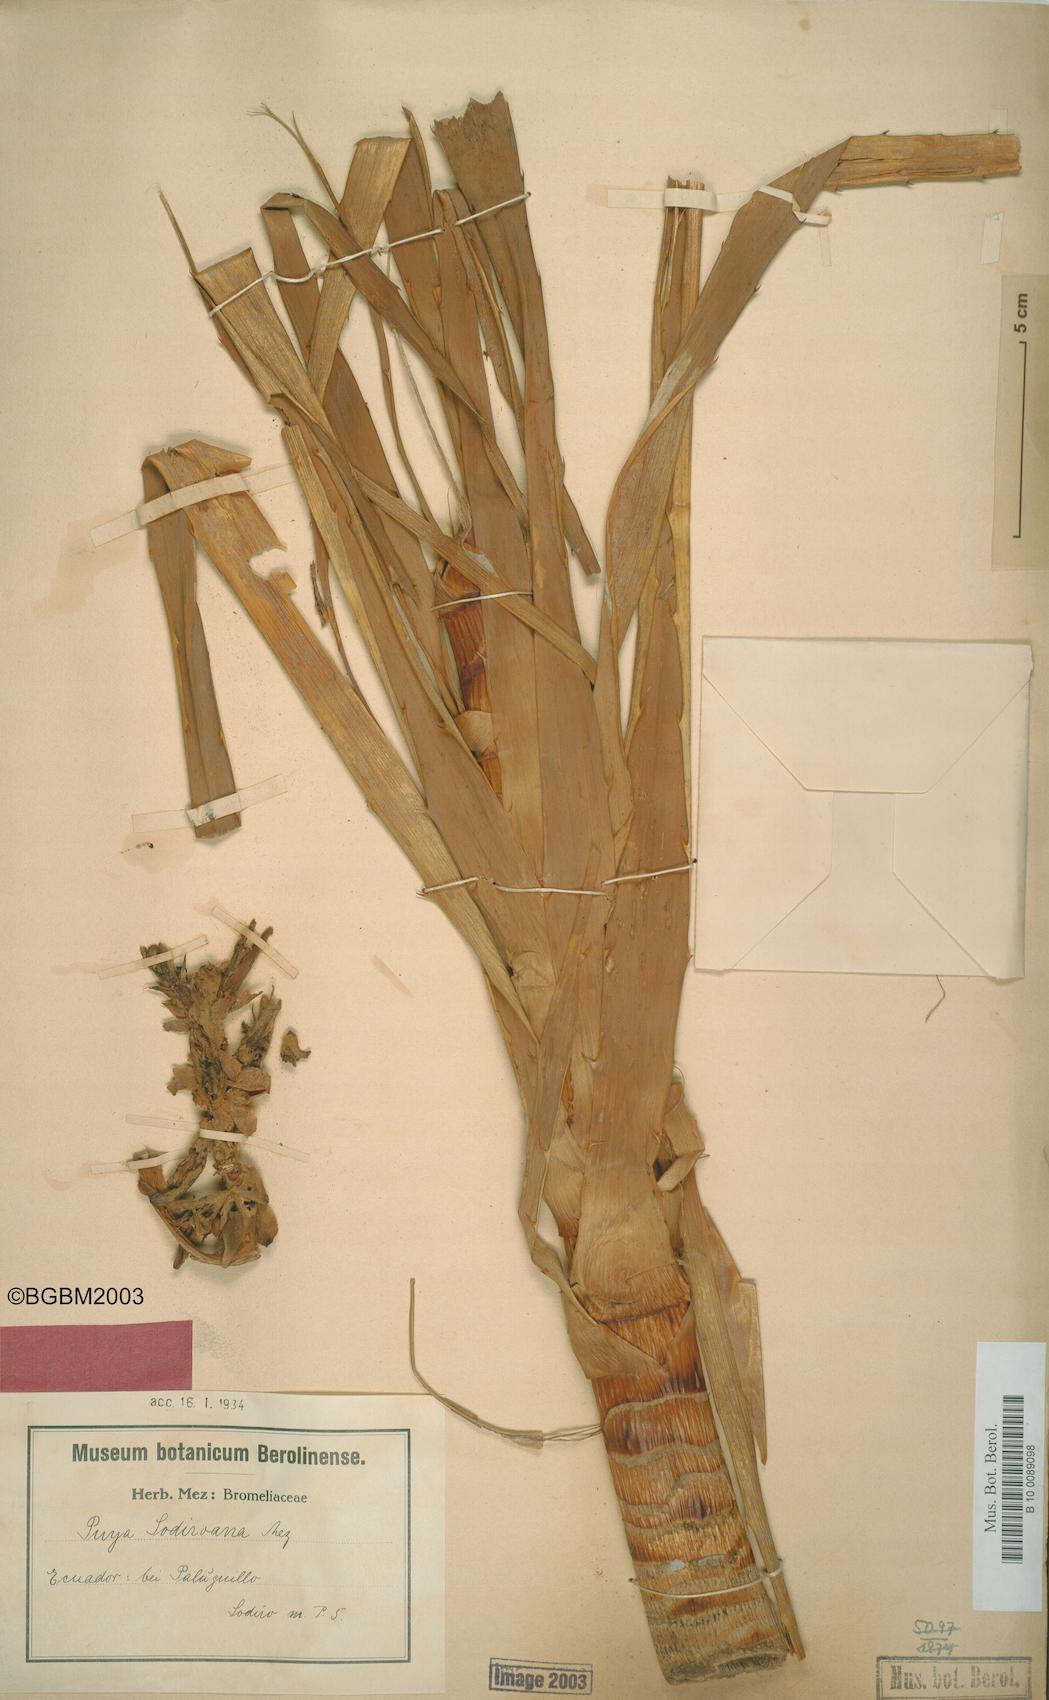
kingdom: Plantae
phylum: Tracheophyta
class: Liliopsida
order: Poales
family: Bromeliaceae
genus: Puya
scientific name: Puya sodiroana
